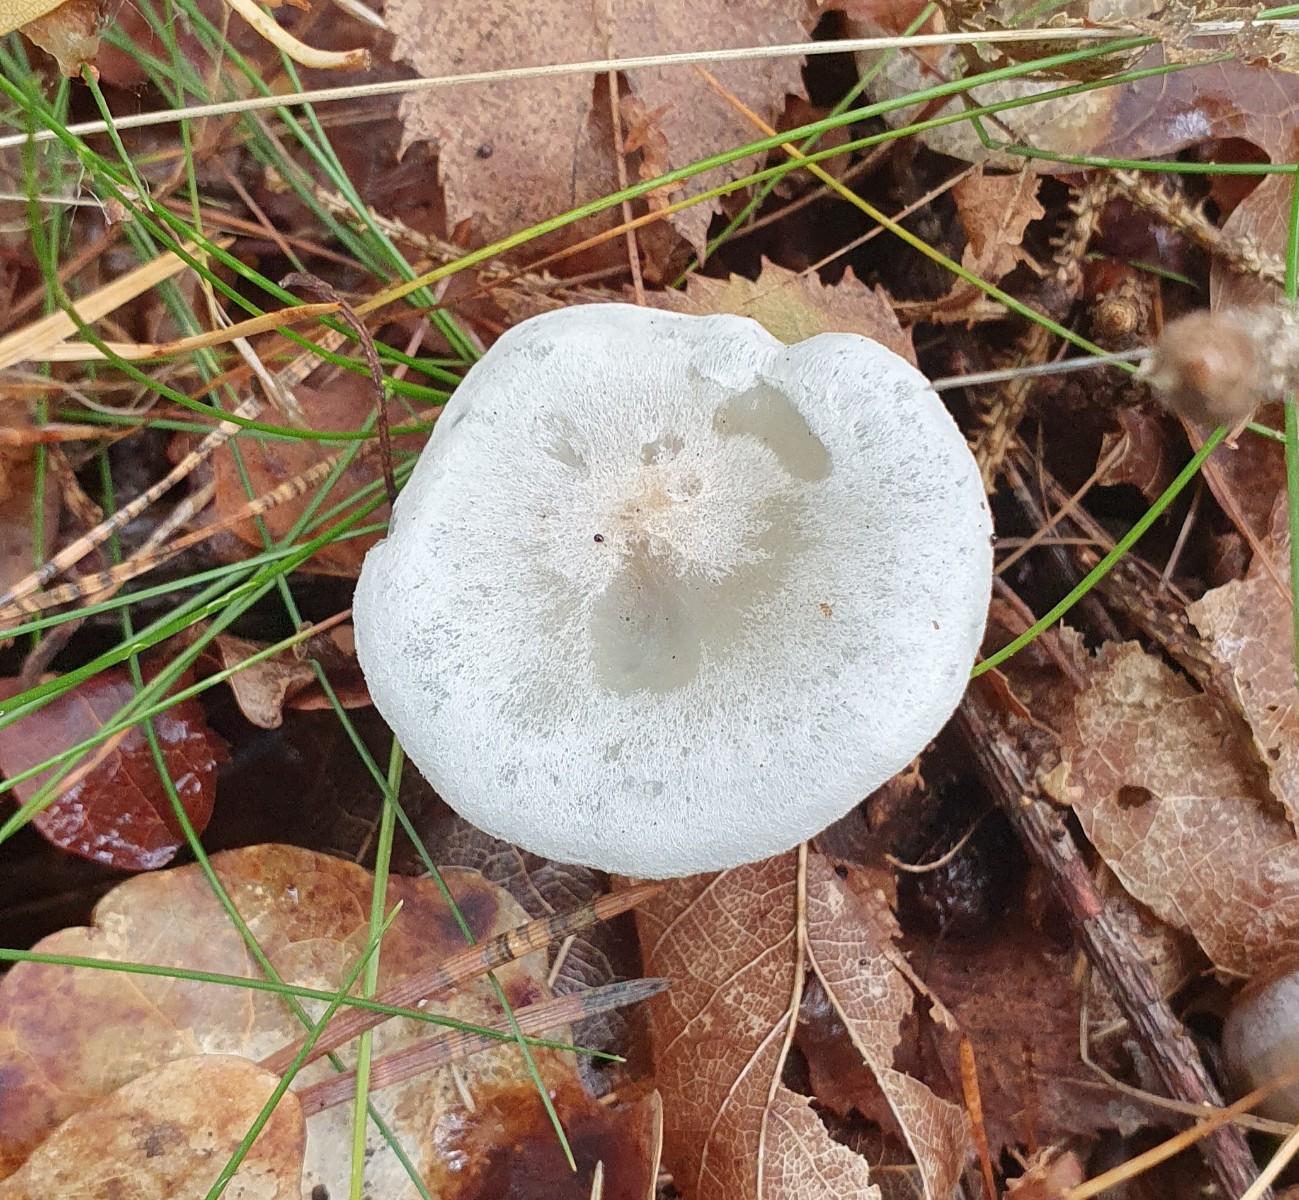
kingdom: Fungi
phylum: Basidiomycota
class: Agaricomycetes
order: Agaricales
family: Tricholomataceae
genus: Clitocybe
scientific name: Clitocybe odora
